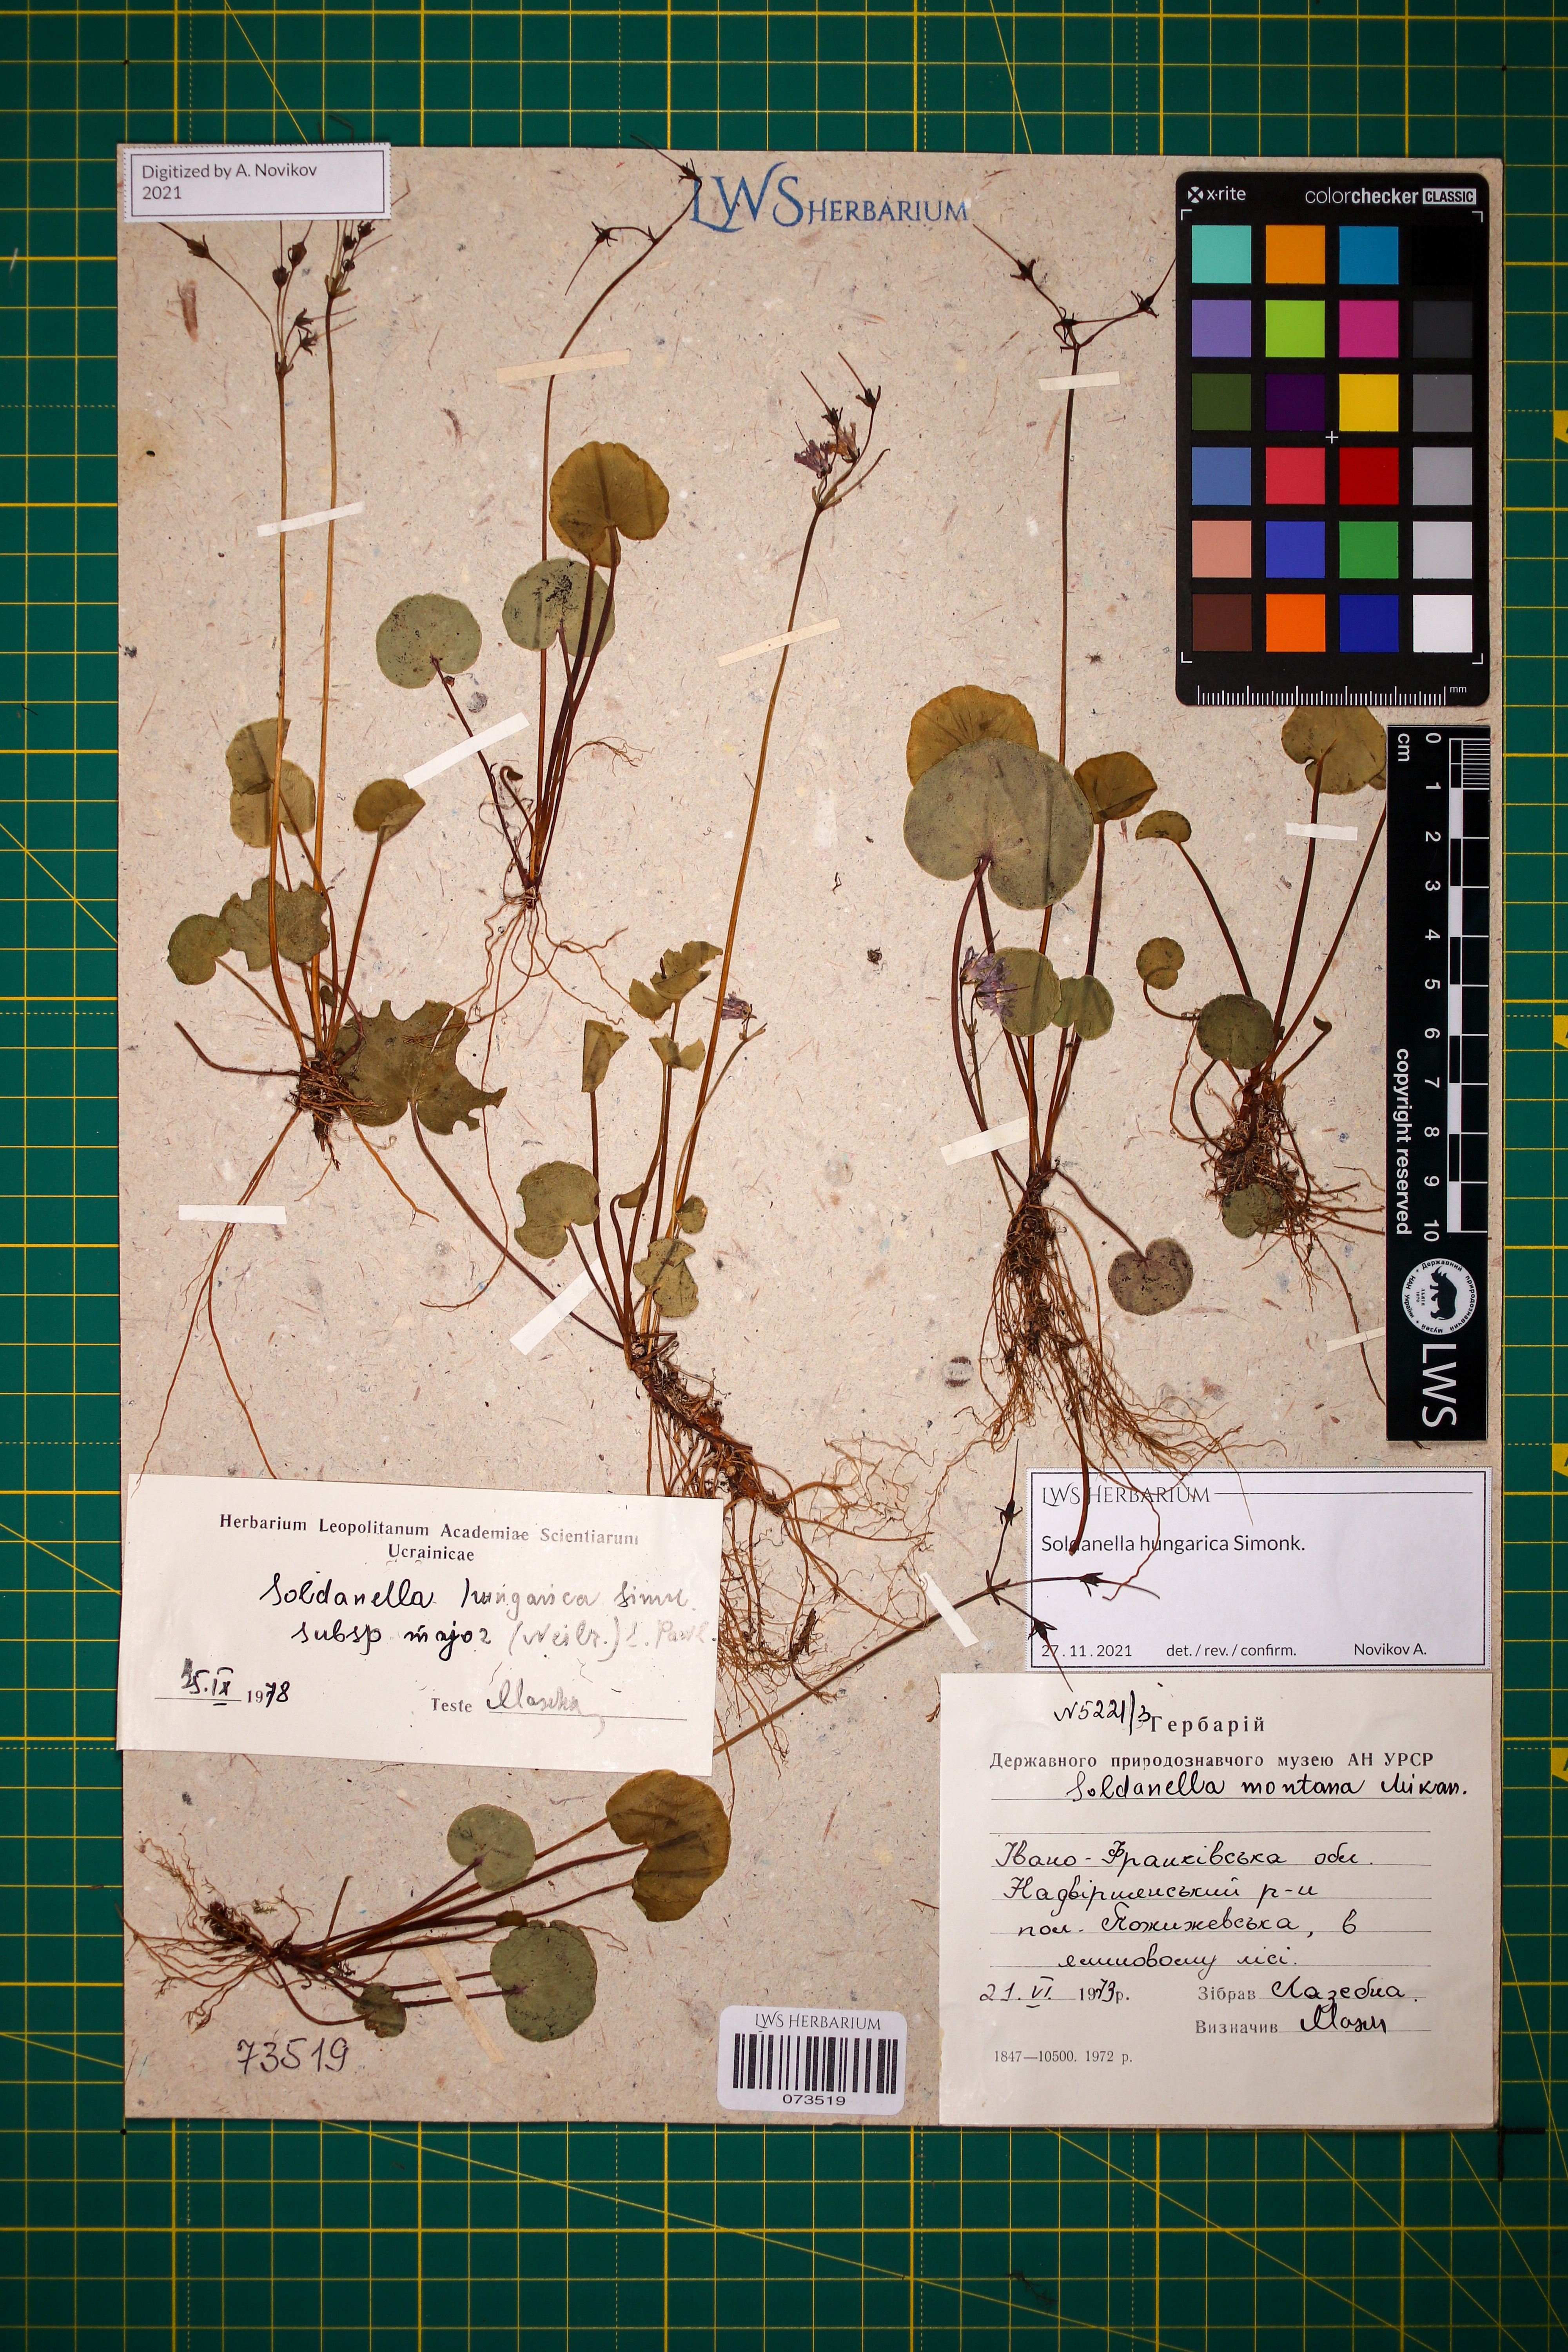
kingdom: Plantae
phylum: Tracheophyta
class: Magnoliopsida
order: Ericales
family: Primulaceae
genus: Soldanella
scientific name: Soldanella hungarica
